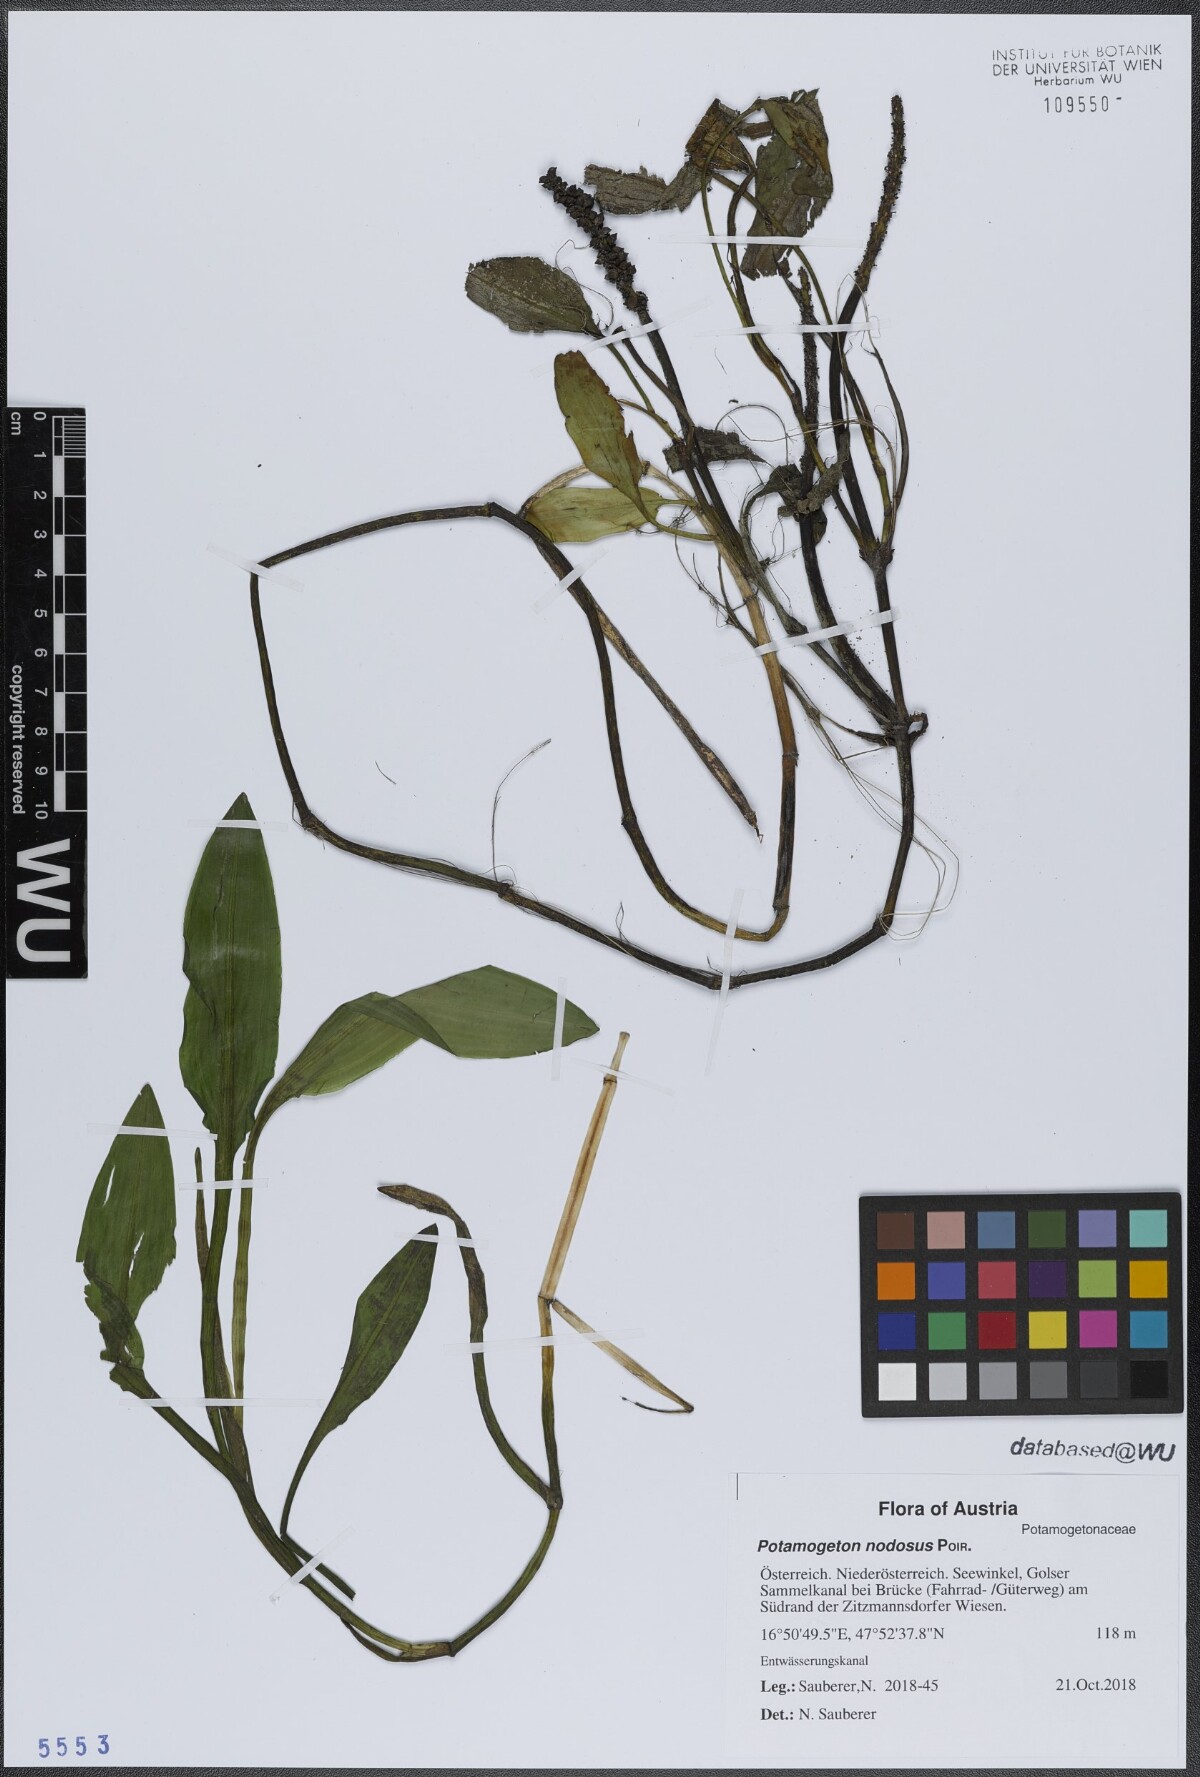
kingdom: Plantae
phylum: Tracheophyta
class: Liliopsida
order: Alismatales
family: Potamogetonaceae
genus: Potamogeton
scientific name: Potamogeton nodosus
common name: Loddon pondweed
